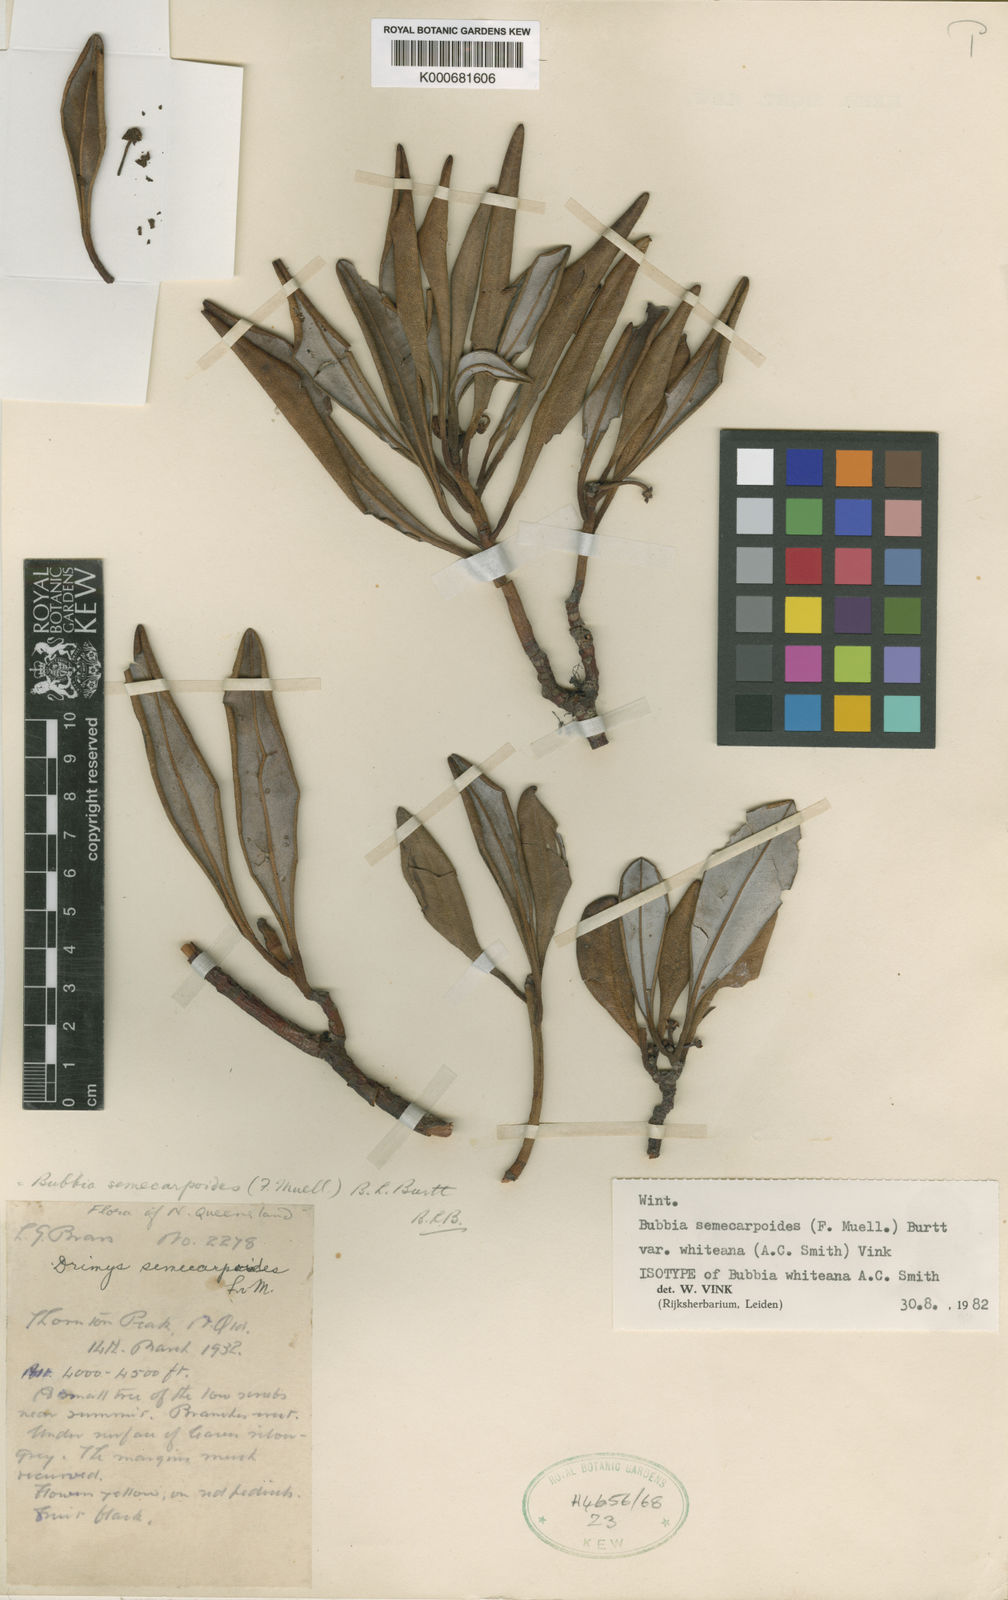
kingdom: Plantae
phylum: Tracheophyta
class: Magnoliopsida
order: Canellales
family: Winteraceae
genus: Zygogynum
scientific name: Zygogynum semecarpoides
